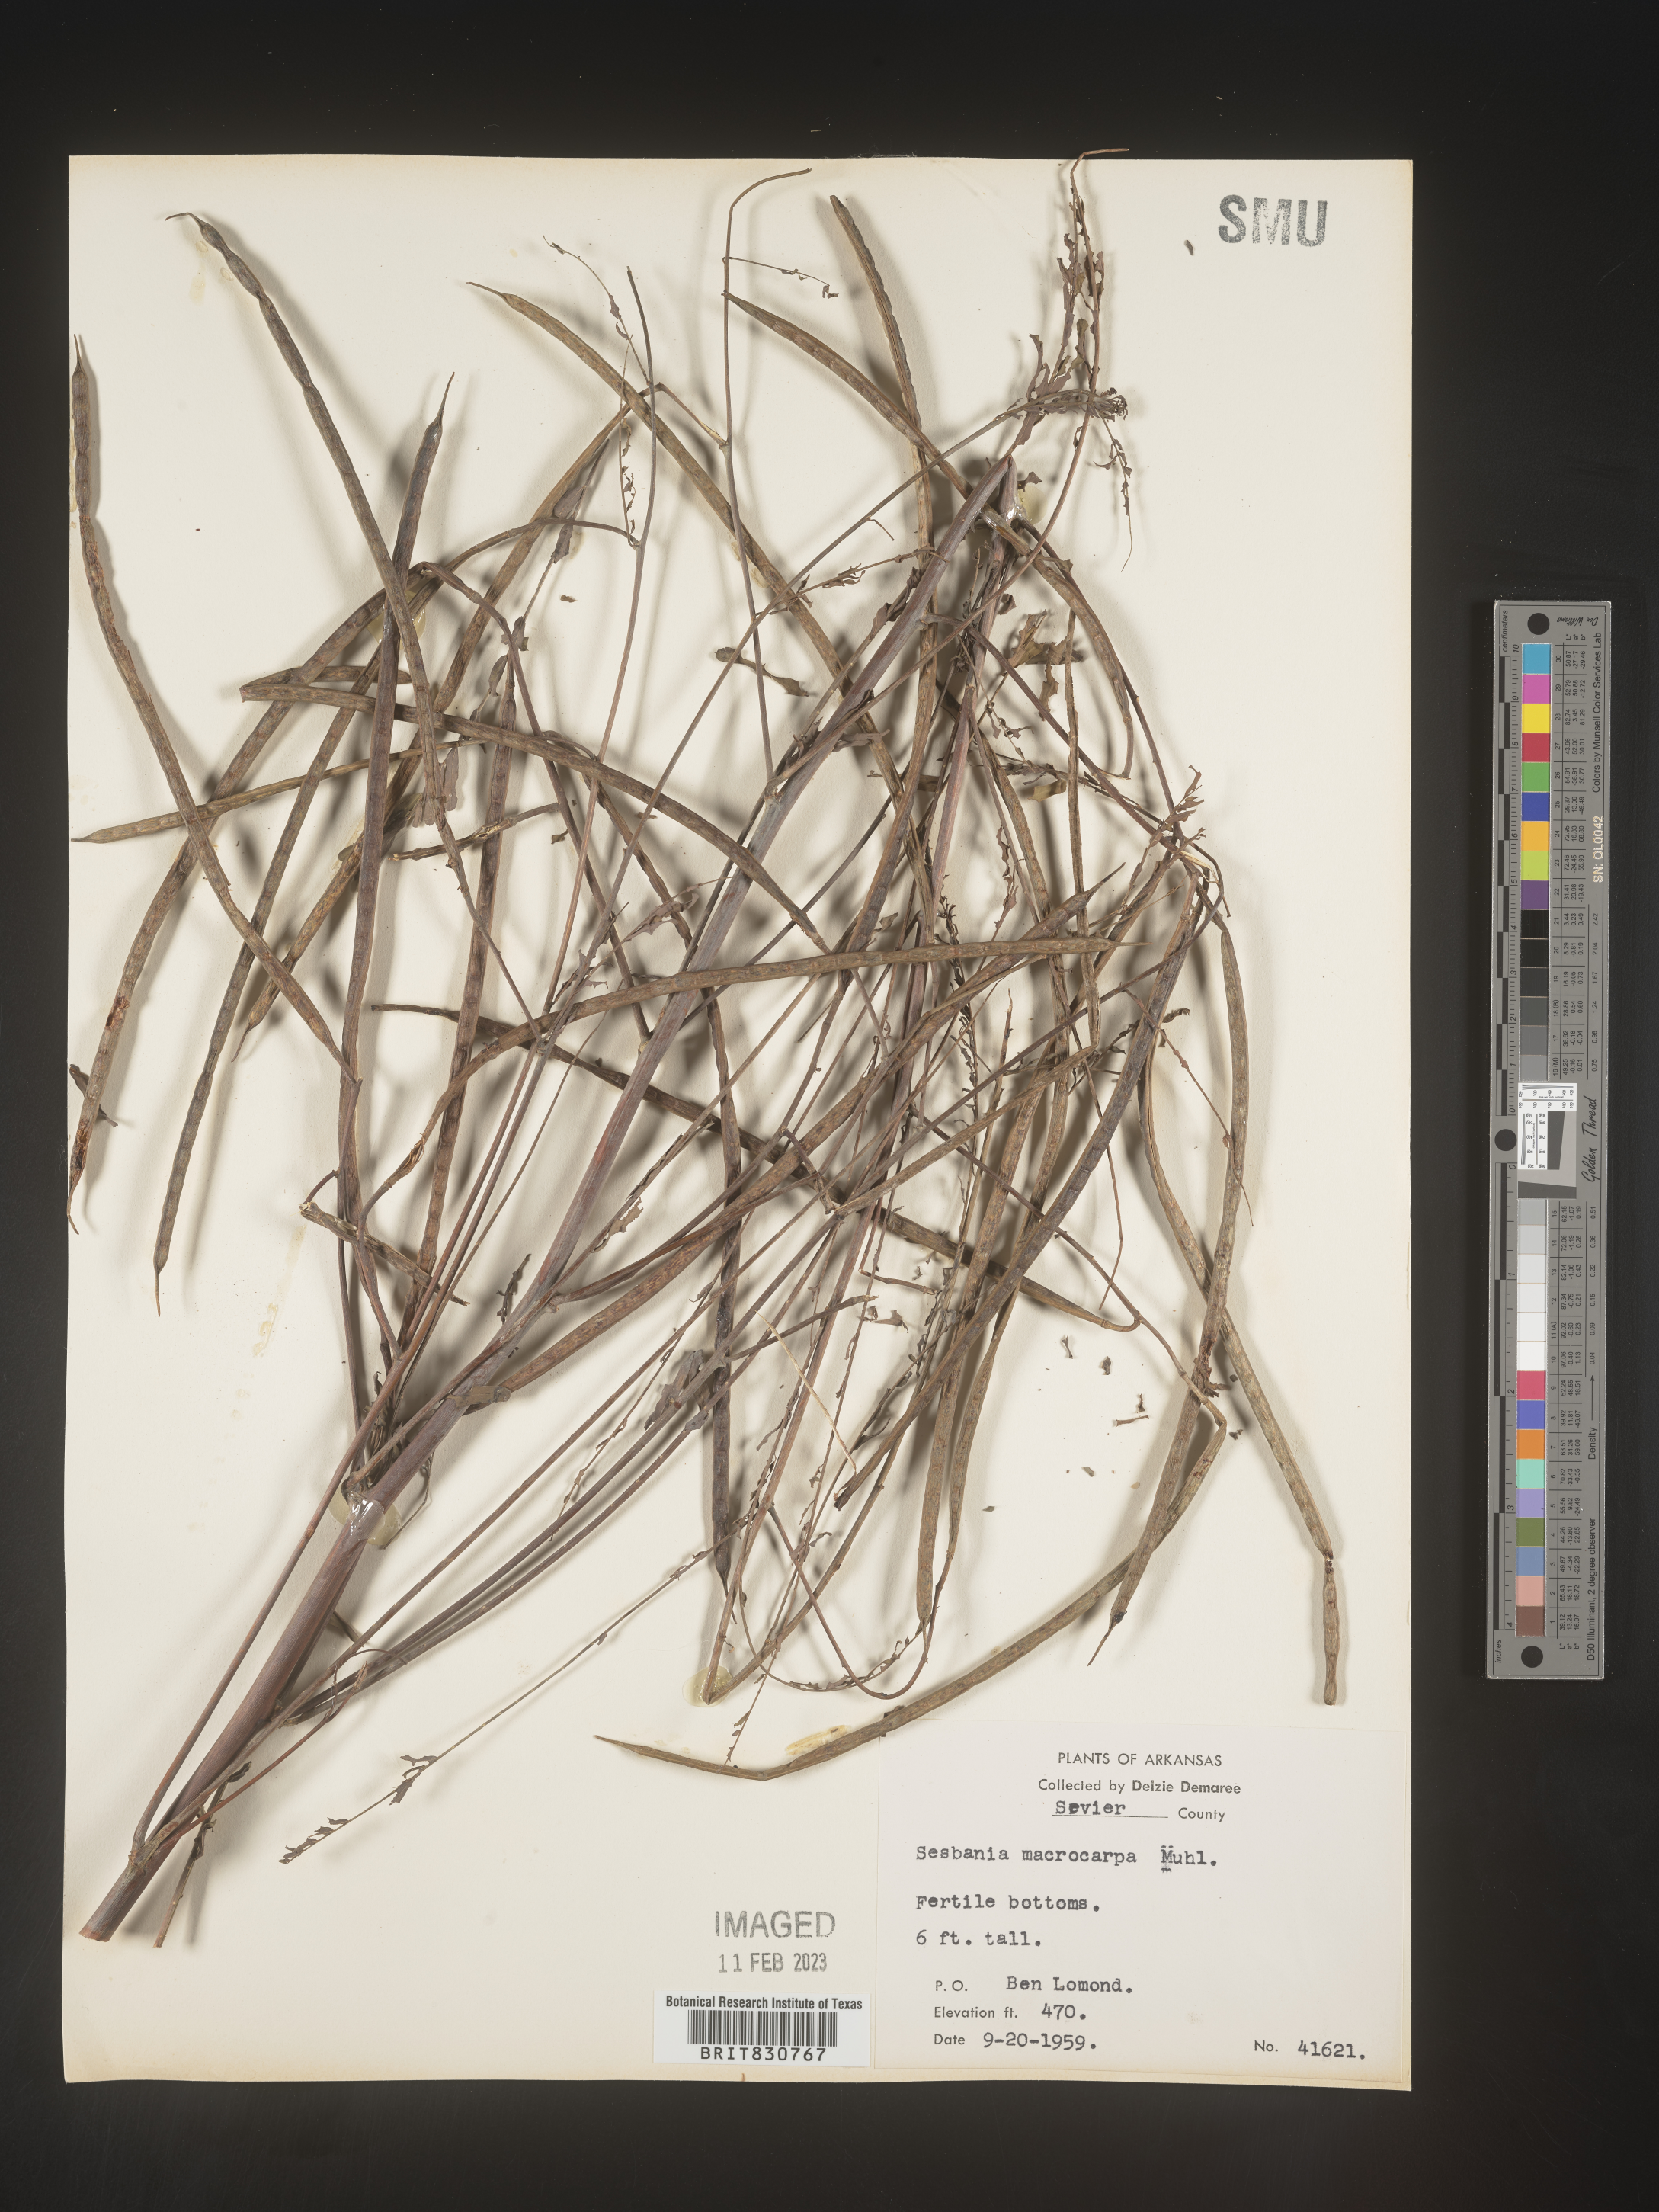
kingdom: Plantae
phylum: Tracheophyta
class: Magnoliopsida
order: Fabales
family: Fabaceae
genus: Sesbania
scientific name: Sesbania vesicaria
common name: Bagpod
